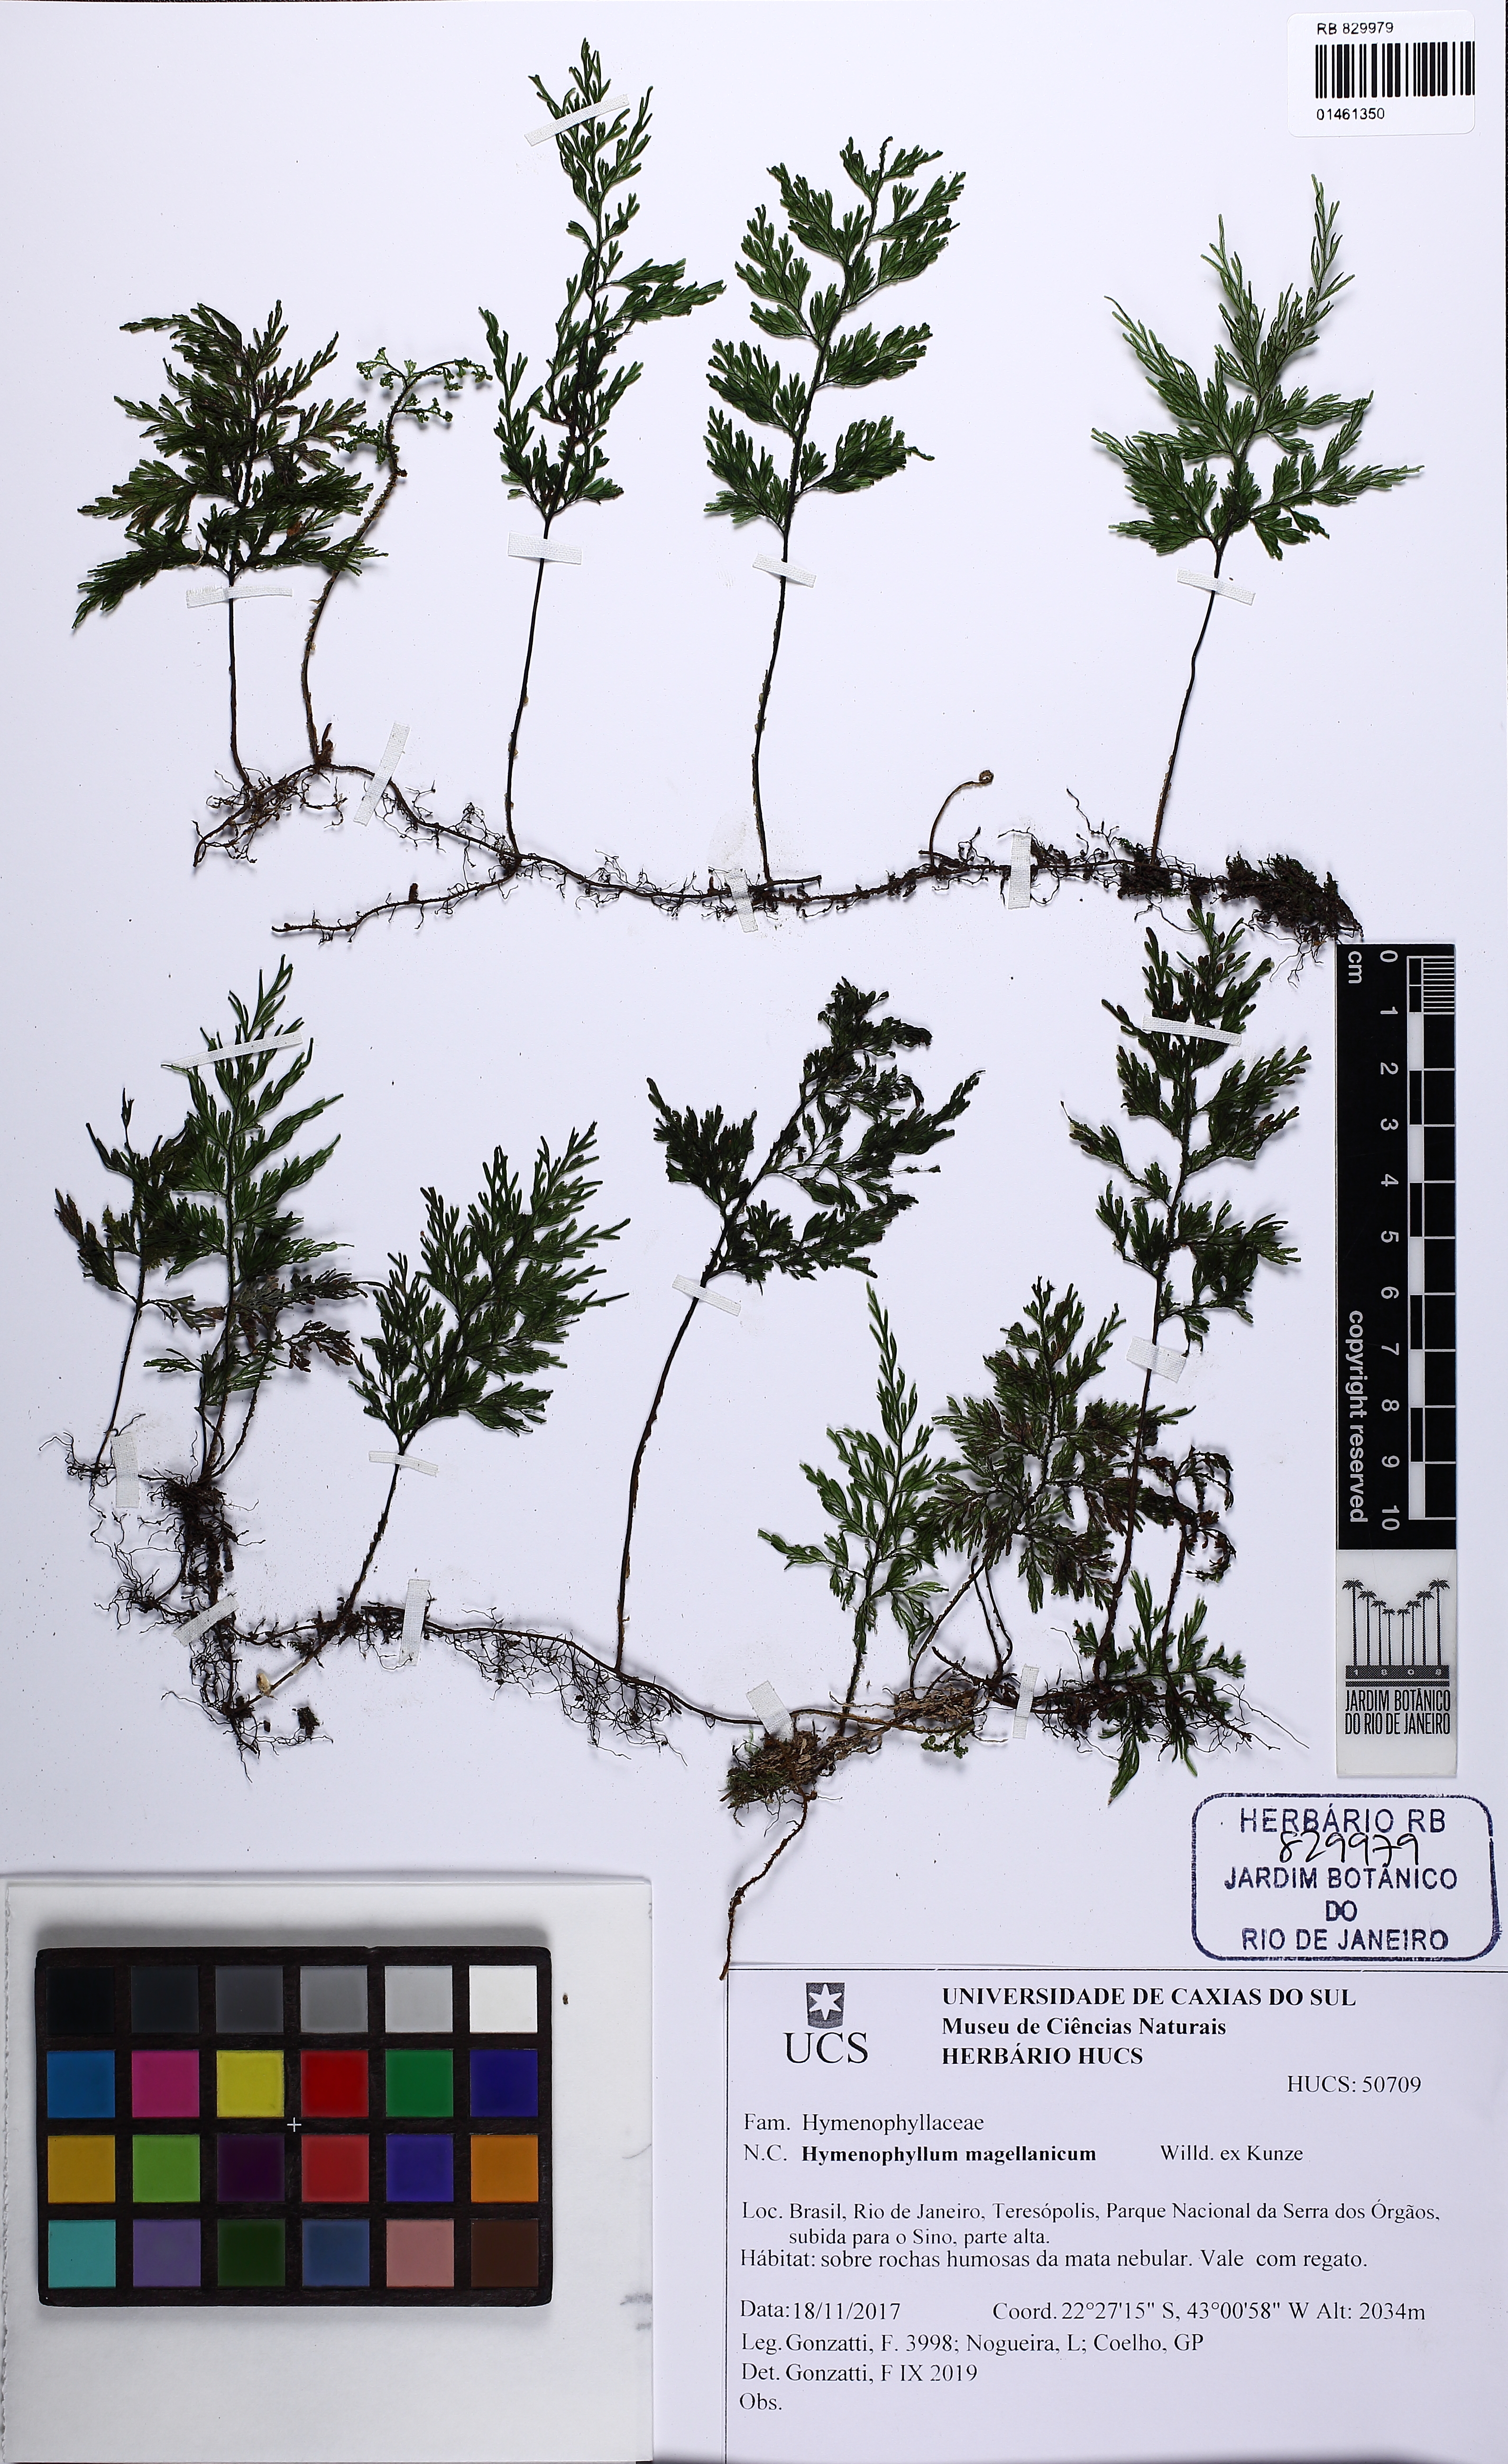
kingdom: Plantae
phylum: Tracheophyta
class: Polypodiopsida
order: Hymenophyllales
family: Hymenophyllaceae
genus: Hymenophyllum
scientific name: Hymenophyllum seselifolium
